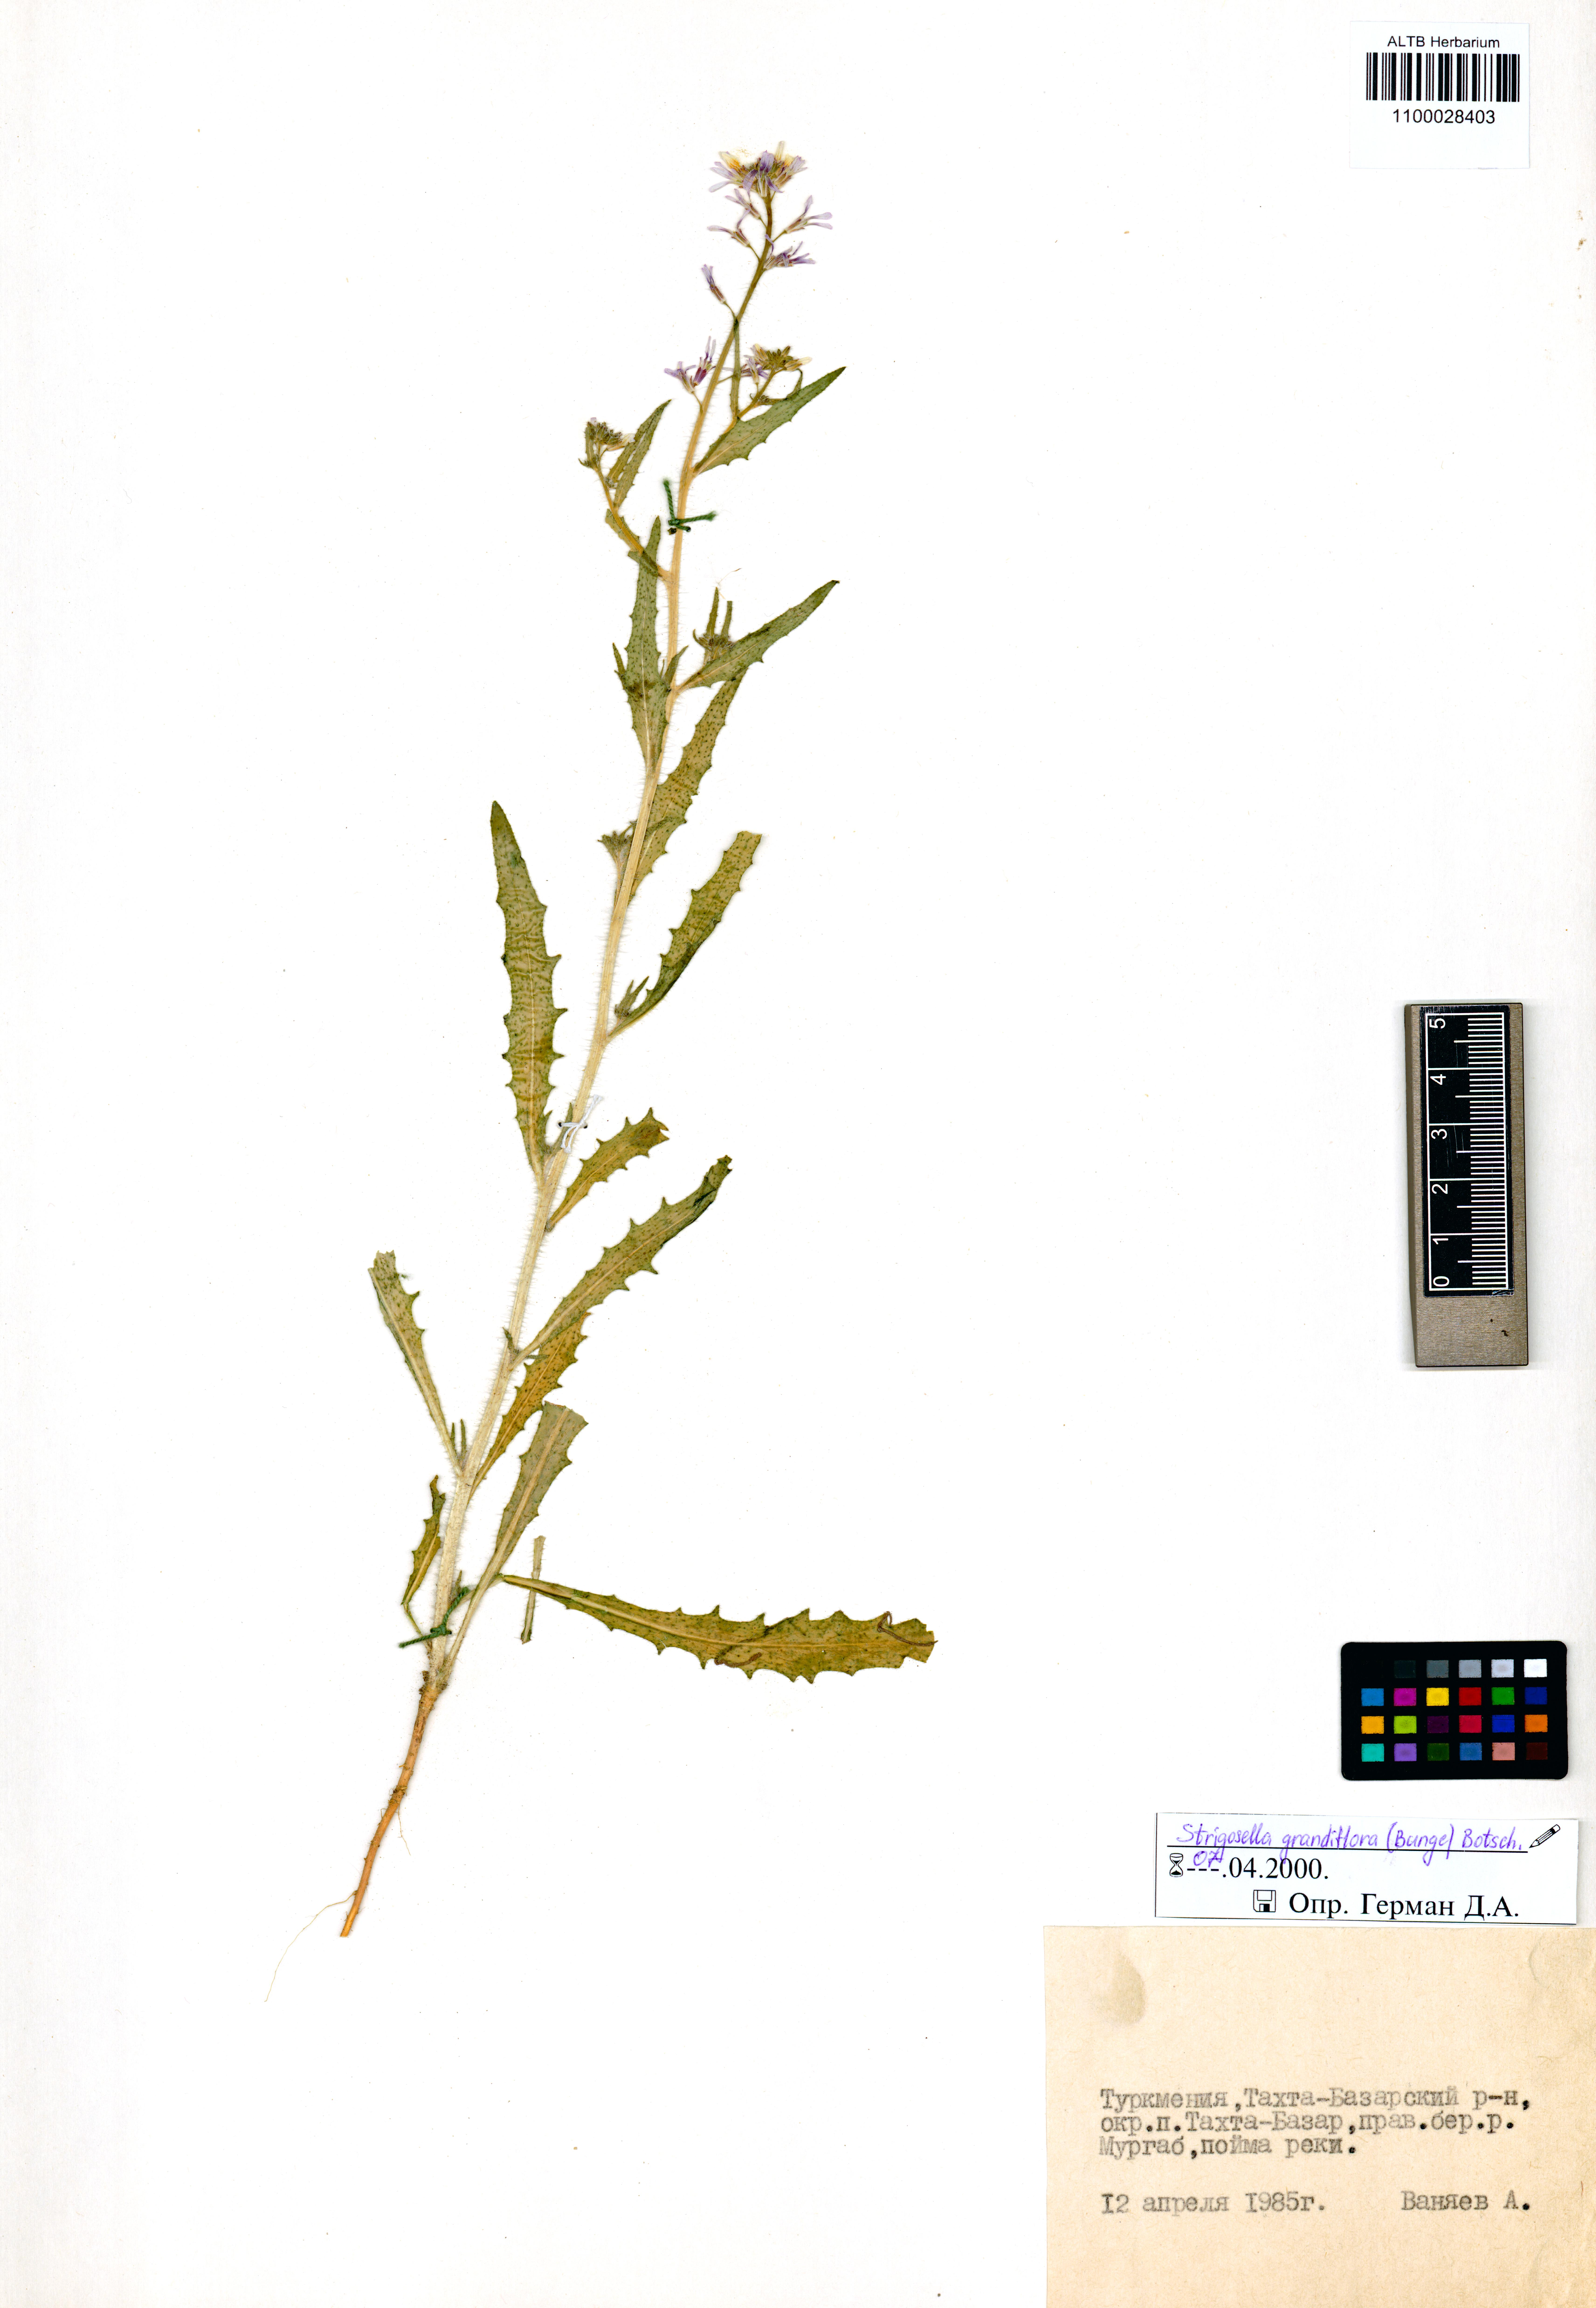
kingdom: Plantae
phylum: Tracheophyta
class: Magnoliopsida
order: Brassicales
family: Brassicaceae
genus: Strigosella
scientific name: Strigosella grandiflora
